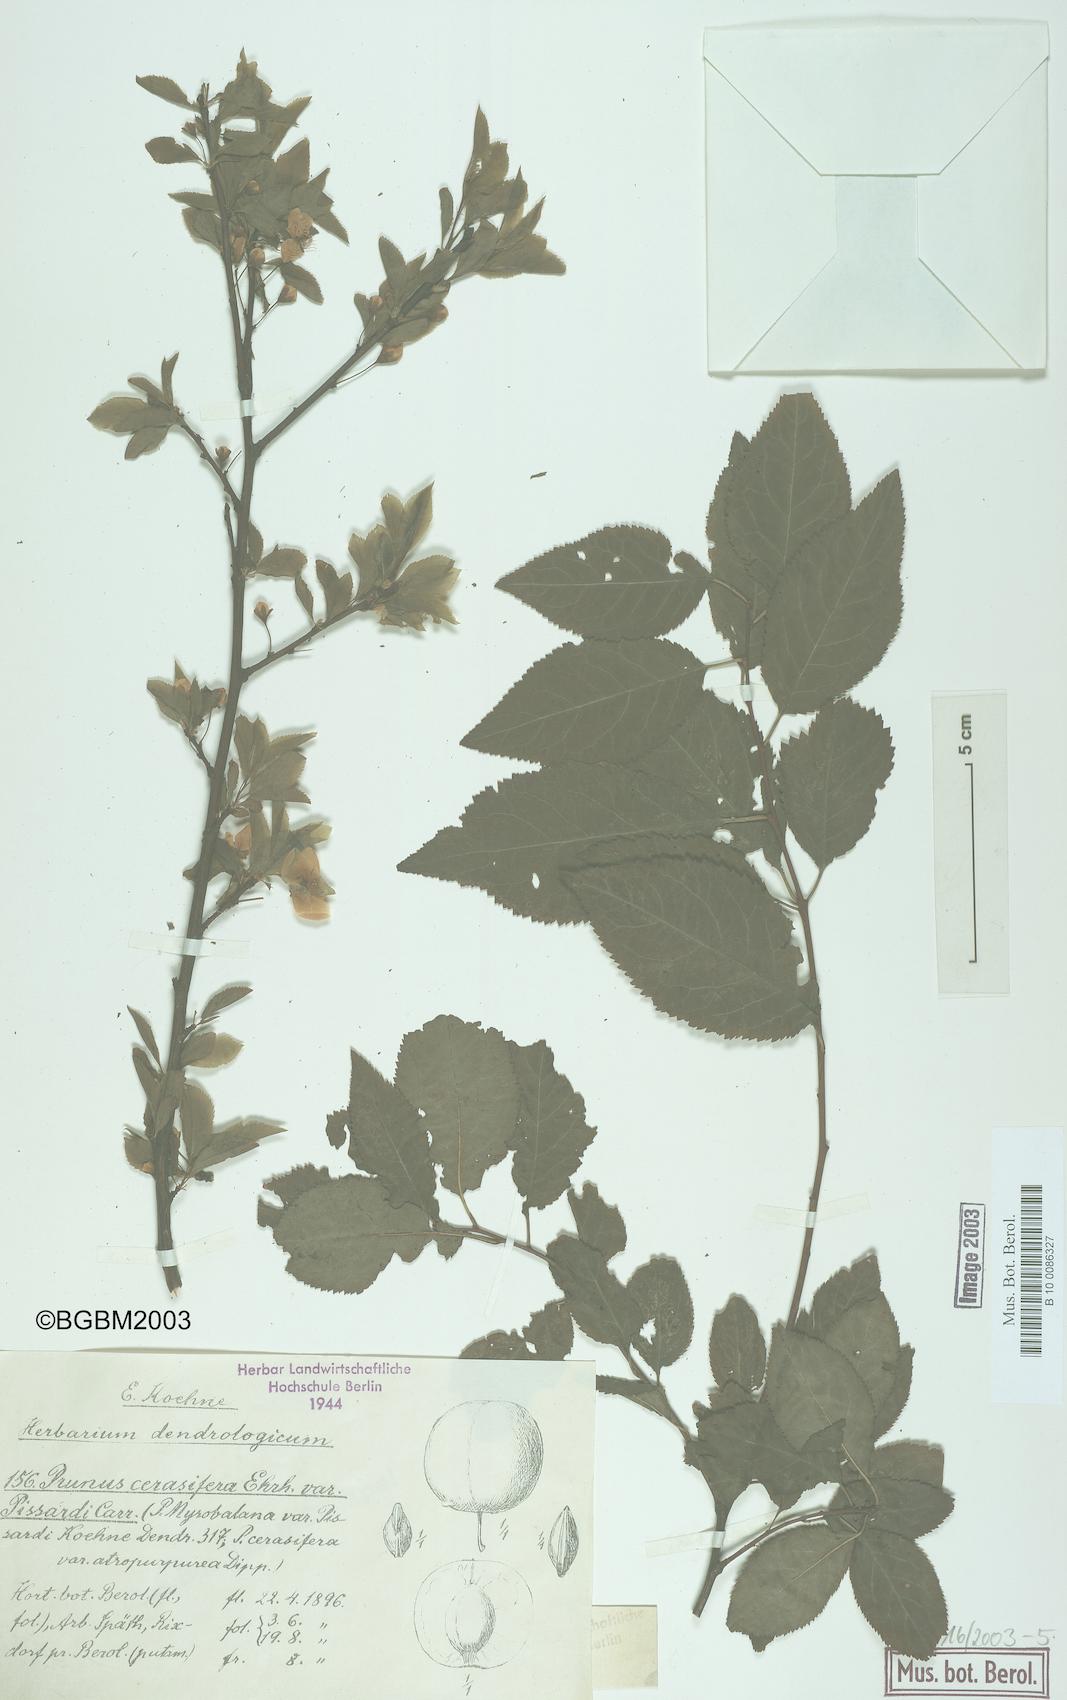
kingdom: Plantae
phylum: Tracheophyta
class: Magnoliopsida
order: Rosales
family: Rosaceae
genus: Prunus
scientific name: Prunus
